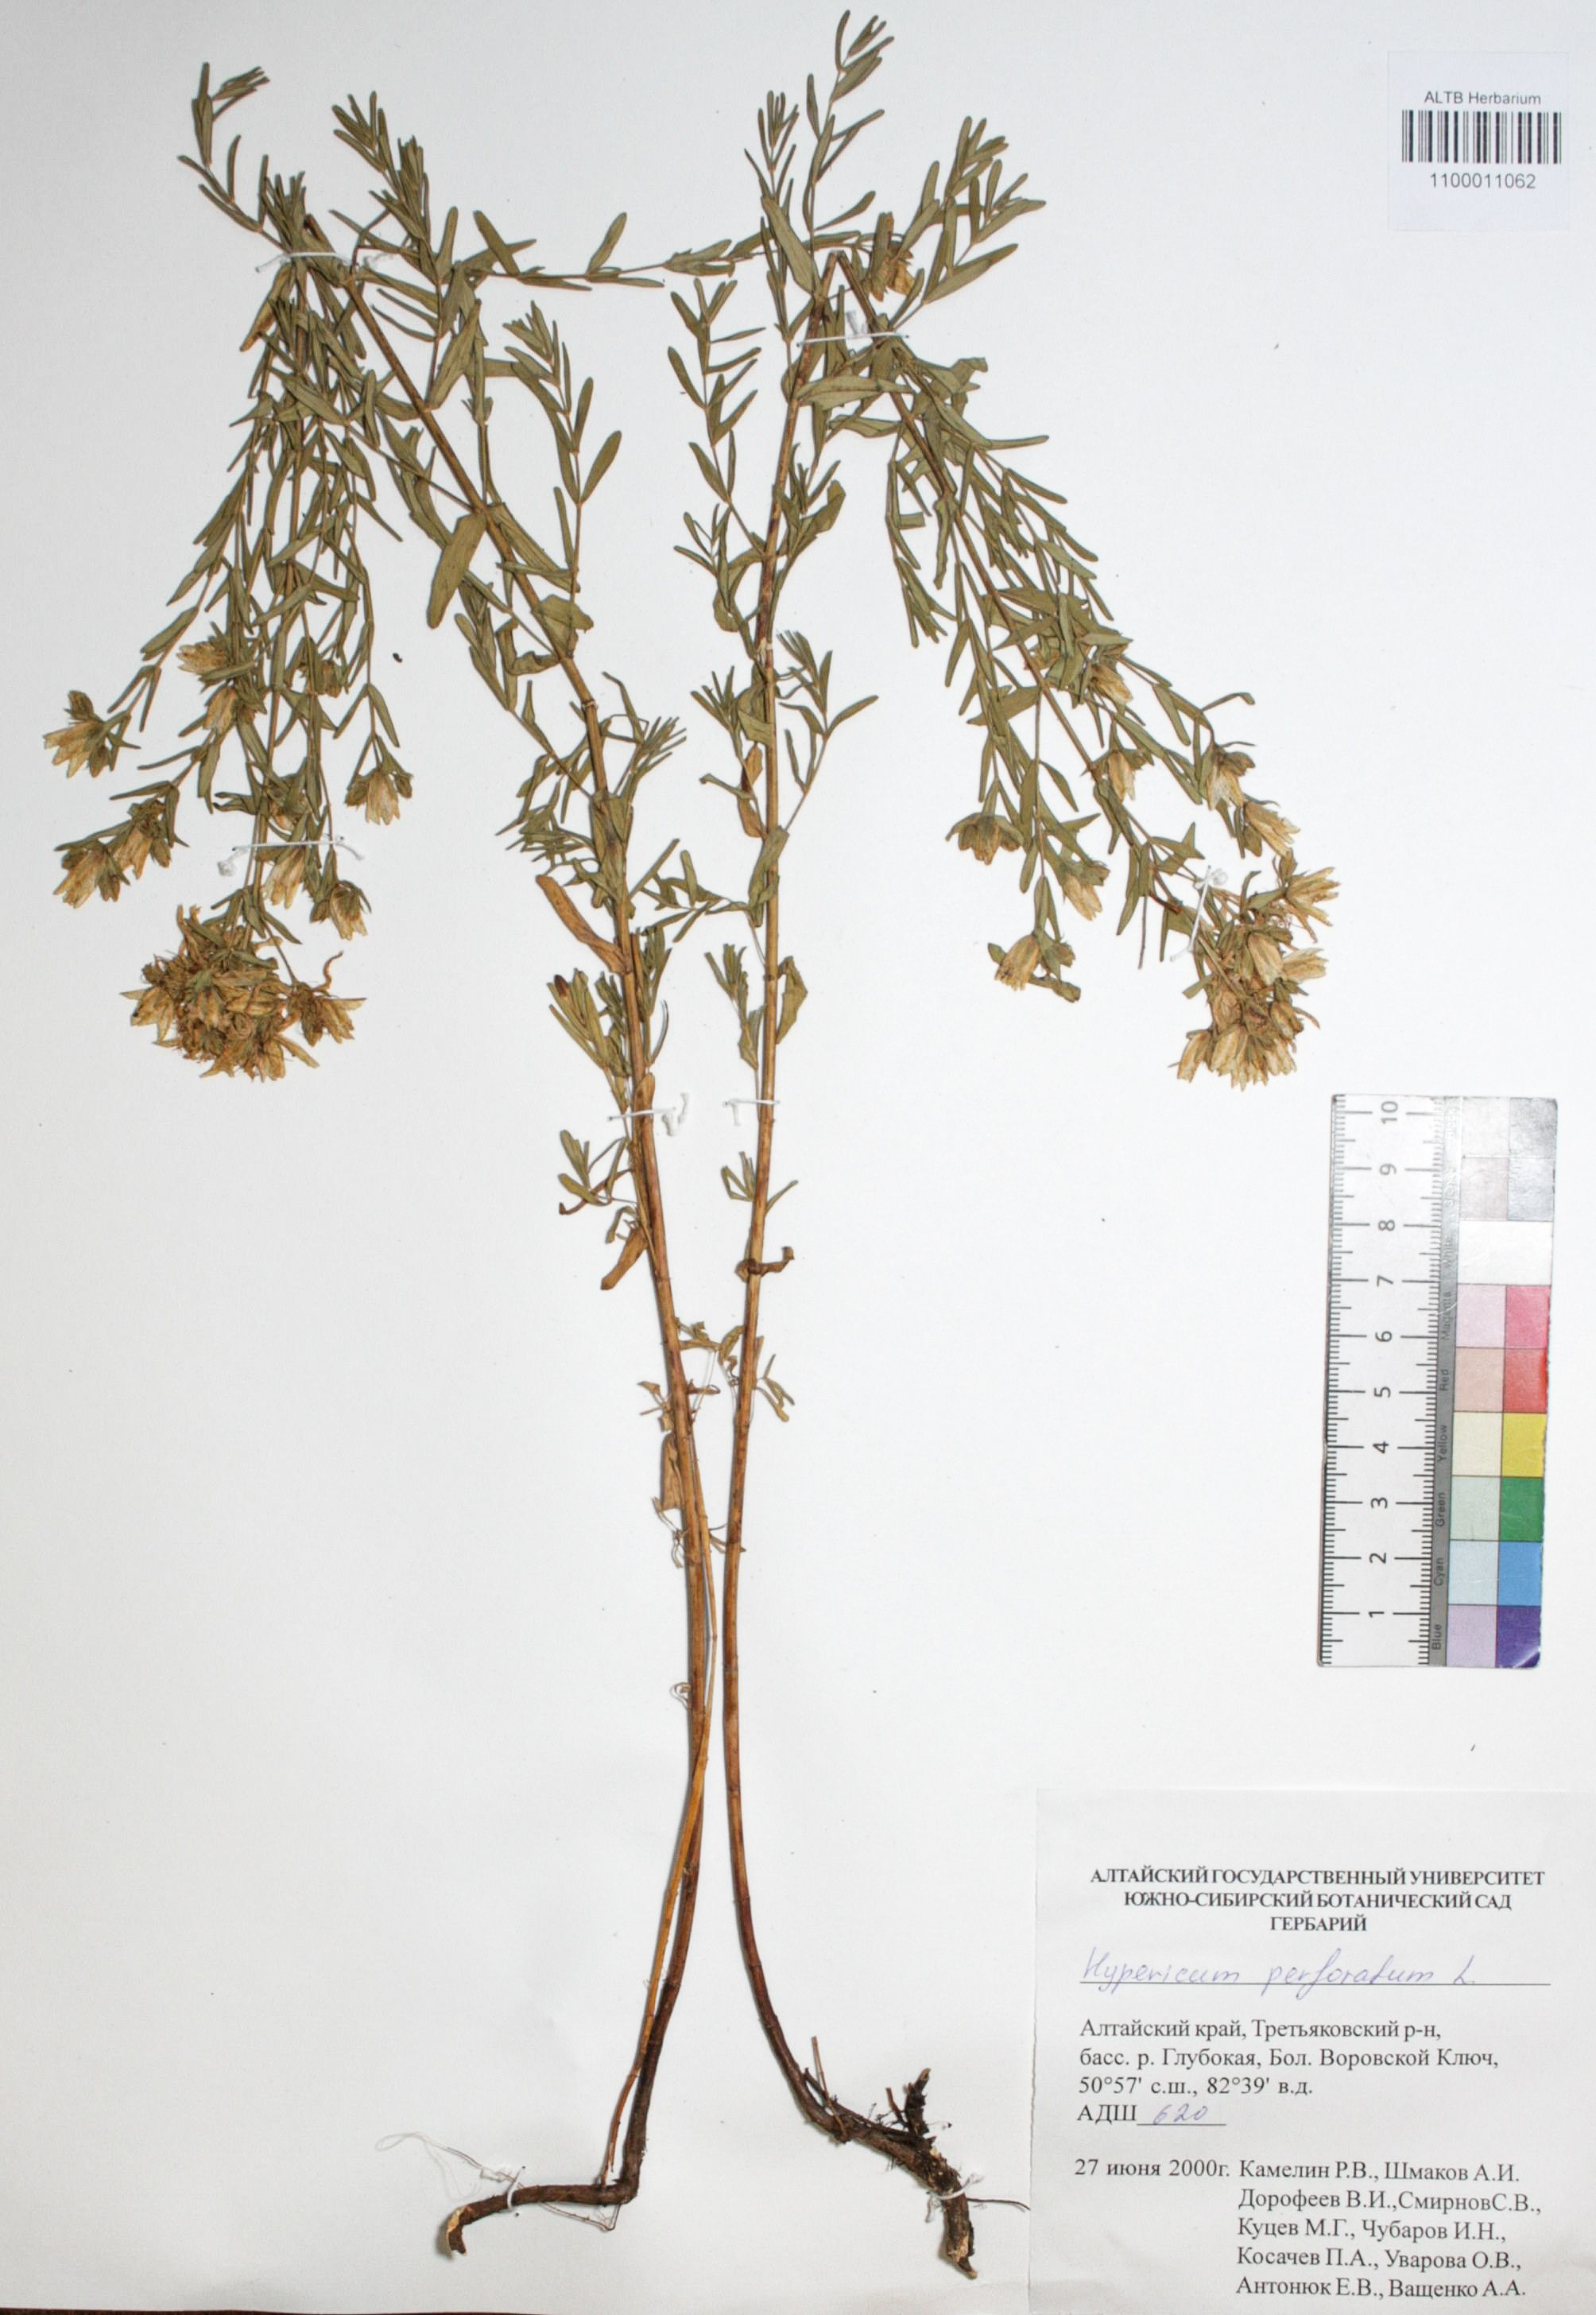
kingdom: Plantae
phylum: Tracheophyta
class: Magnoliopsida
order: Malpighiales
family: Hypericaceae
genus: Hypericum
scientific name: Hypericum perforatum
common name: Common st. johnswort
